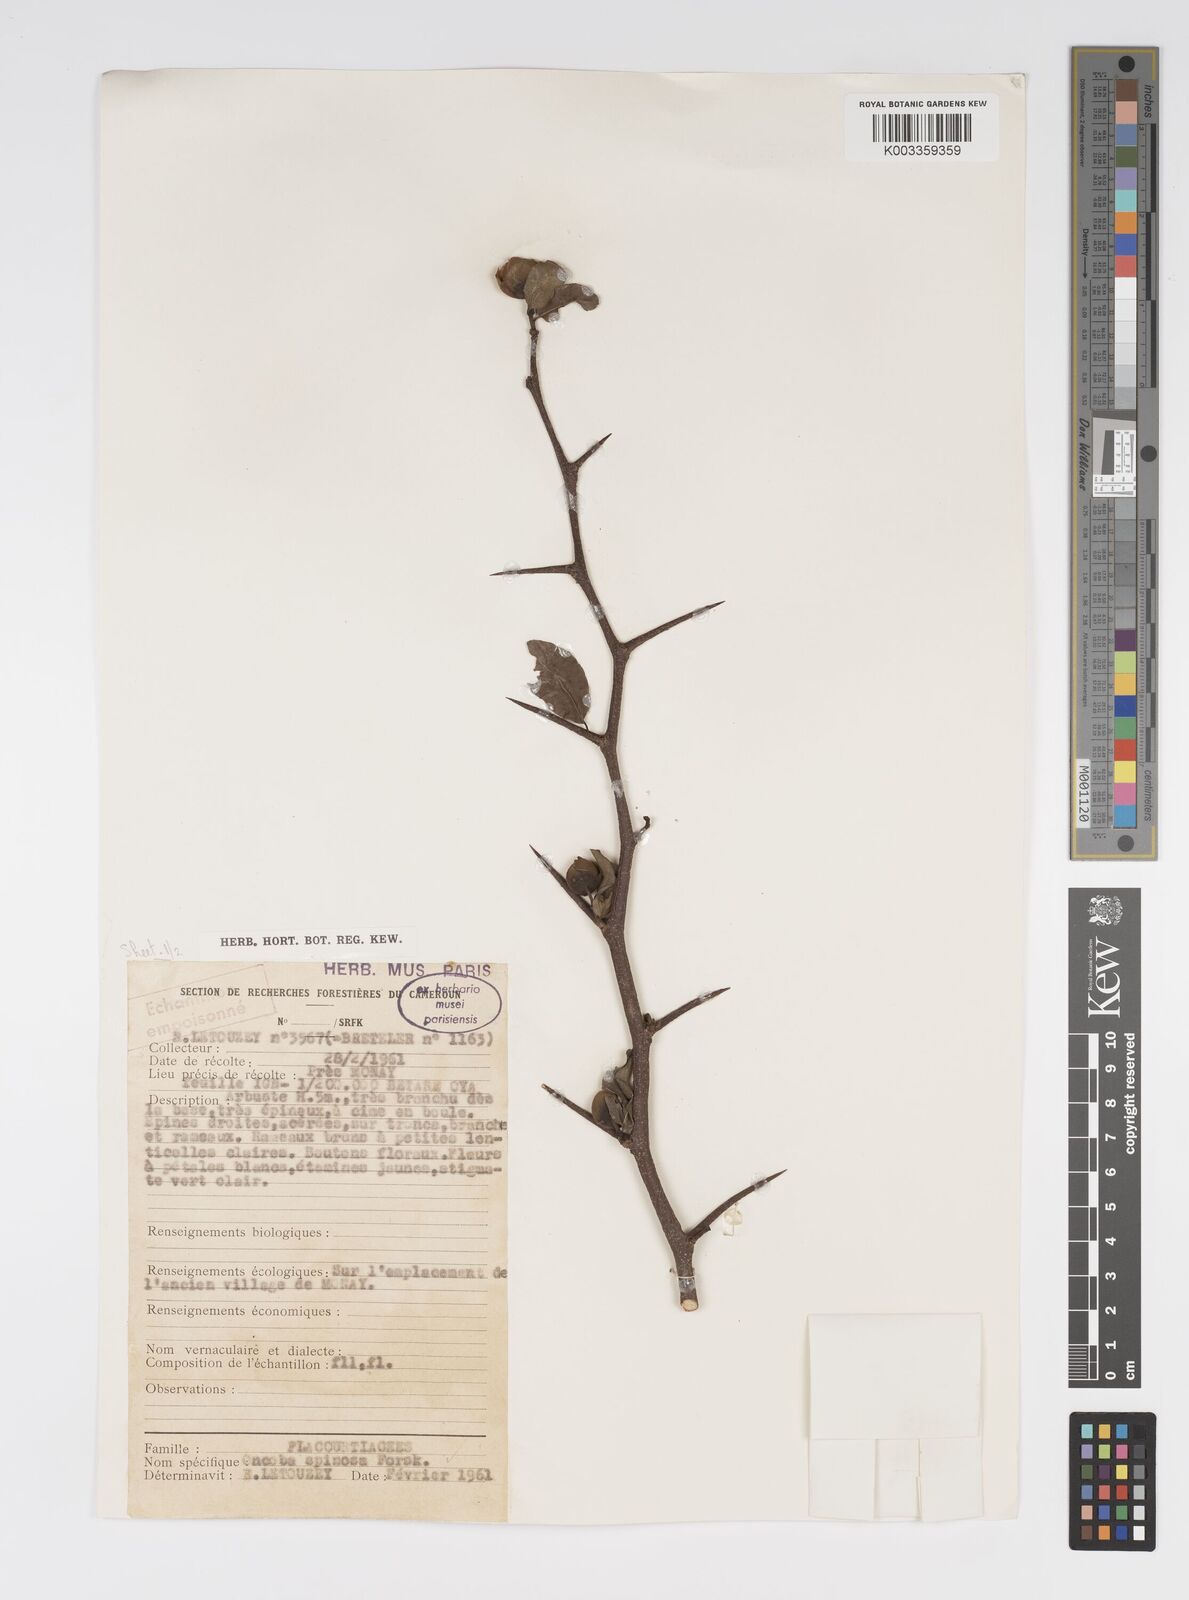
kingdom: Plantae
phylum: Tracheophyta
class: Magnoliopsida
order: Malpighiales
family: Salicaceae
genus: Oncoba
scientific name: Oncoba spinosa
